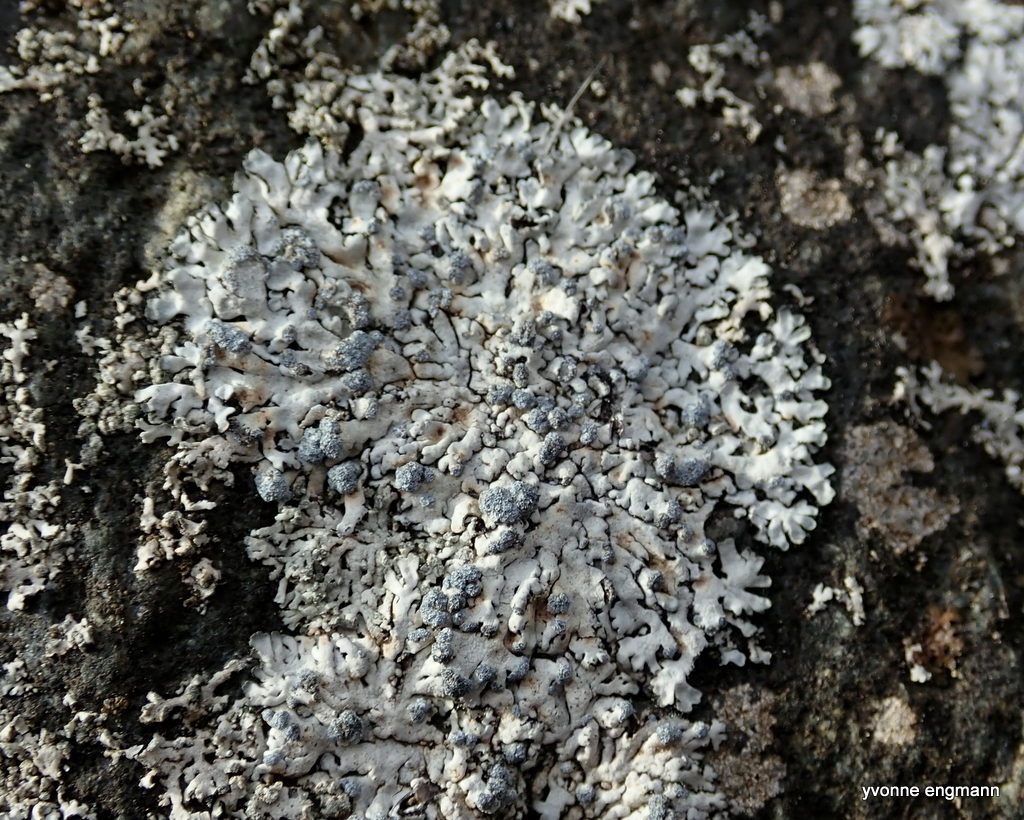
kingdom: Fungi
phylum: Ascomycota
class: Lecanoromycetes
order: Caliciales
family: Physciaceae
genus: Physcia
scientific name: Physcia caesia
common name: blågrå rosetlav
